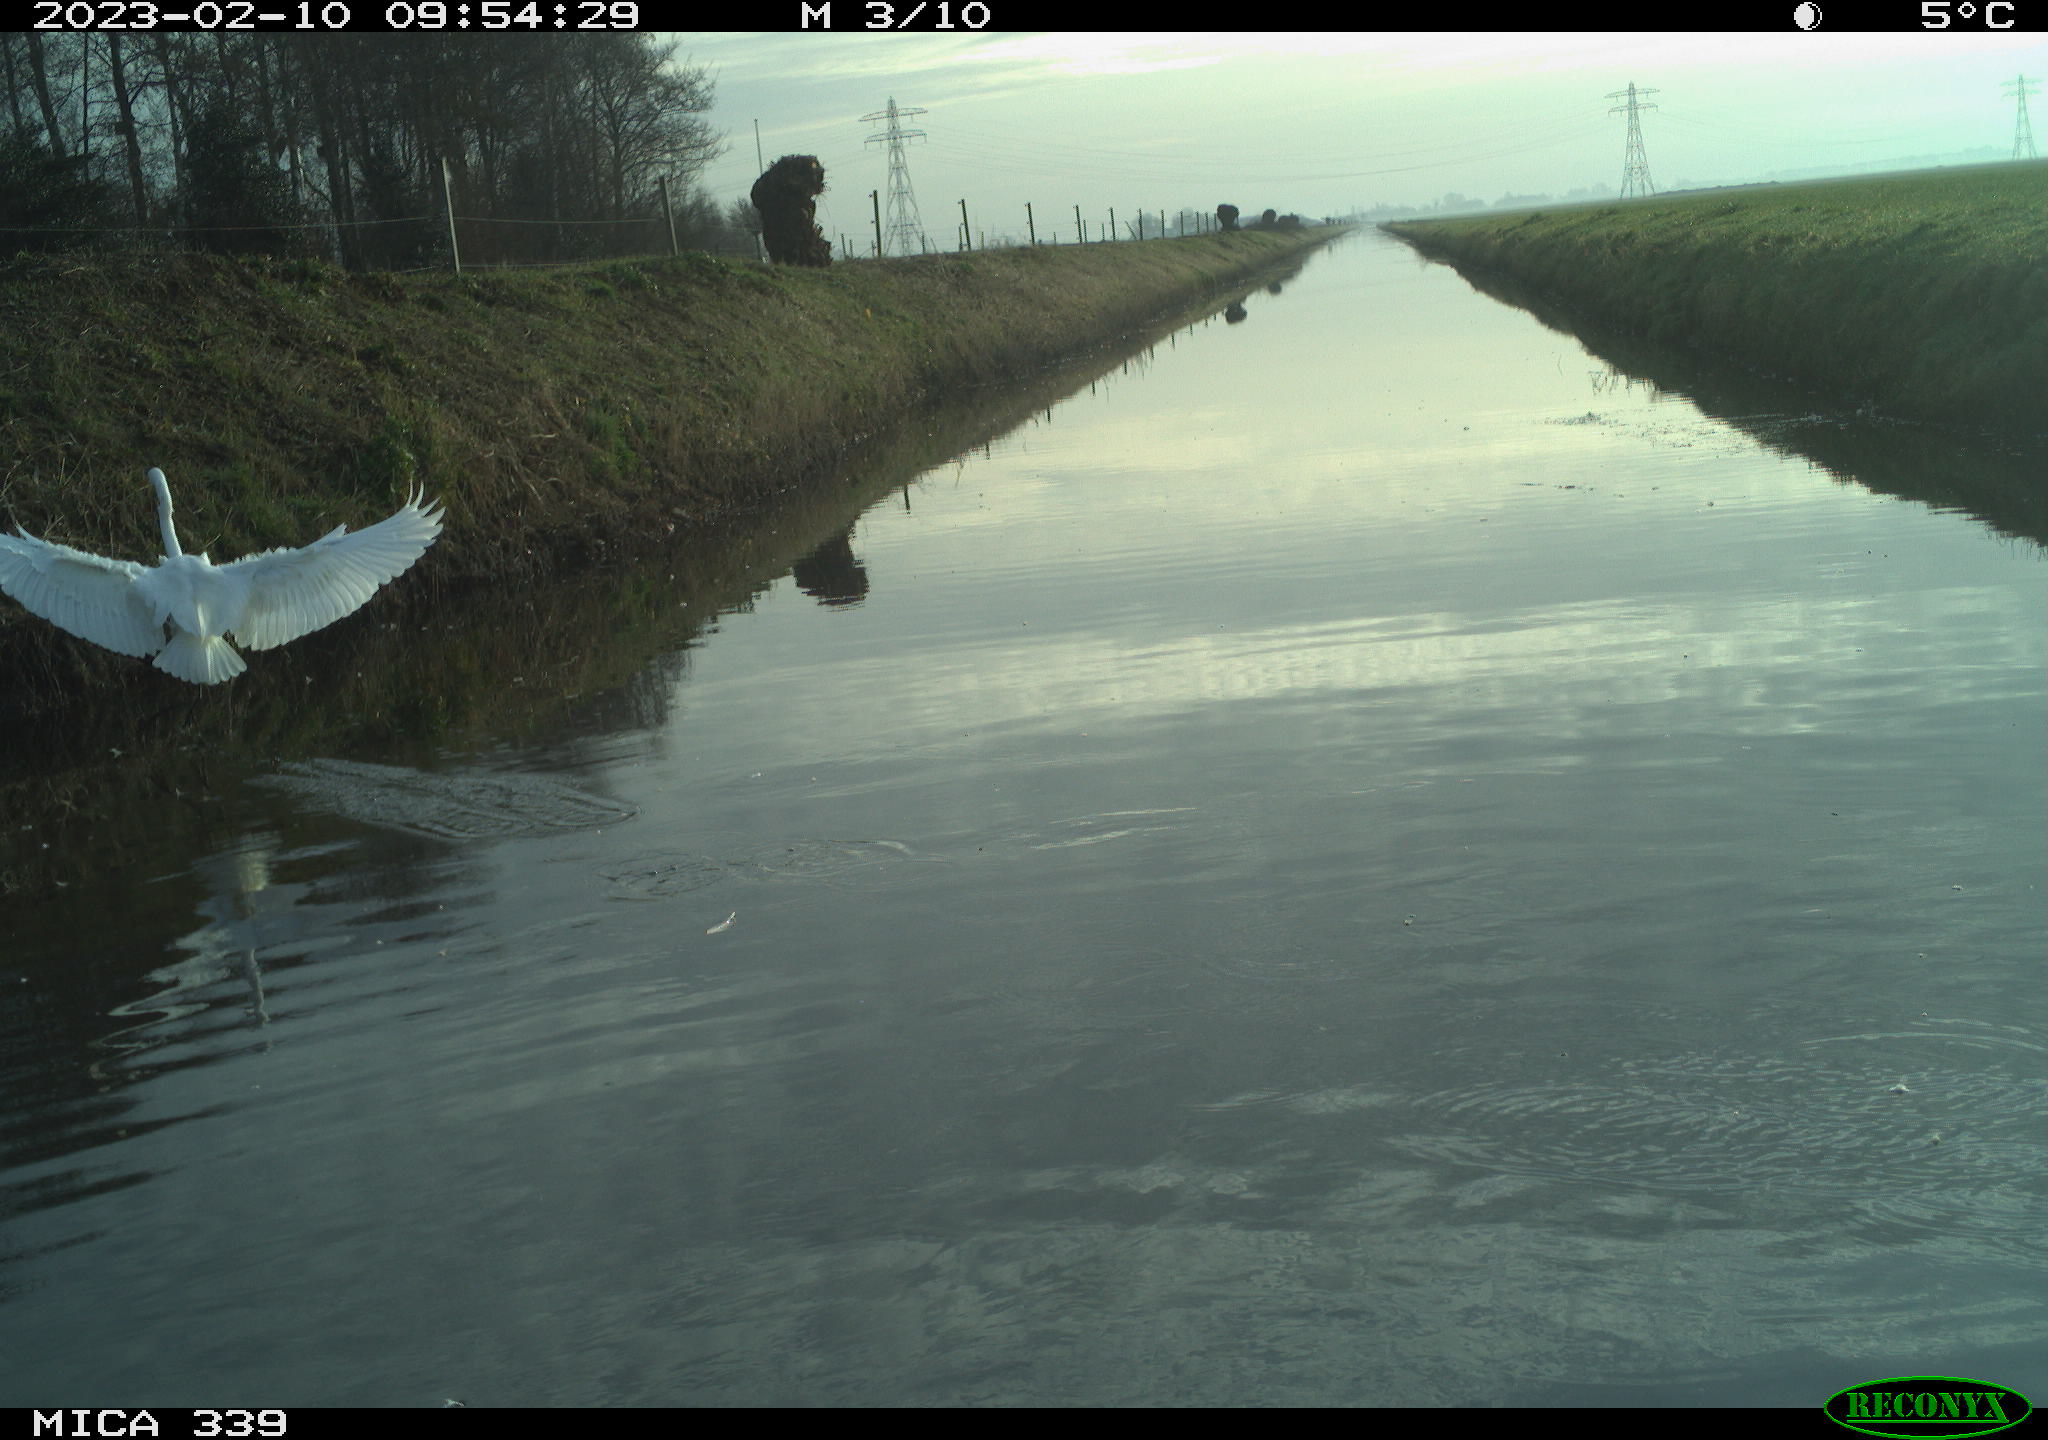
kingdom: Animalia
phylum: Chordata
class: Aves
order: Pelecaniformes
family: Ardeidae
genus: Ardea
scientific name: Ardea alba
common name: Great egret
